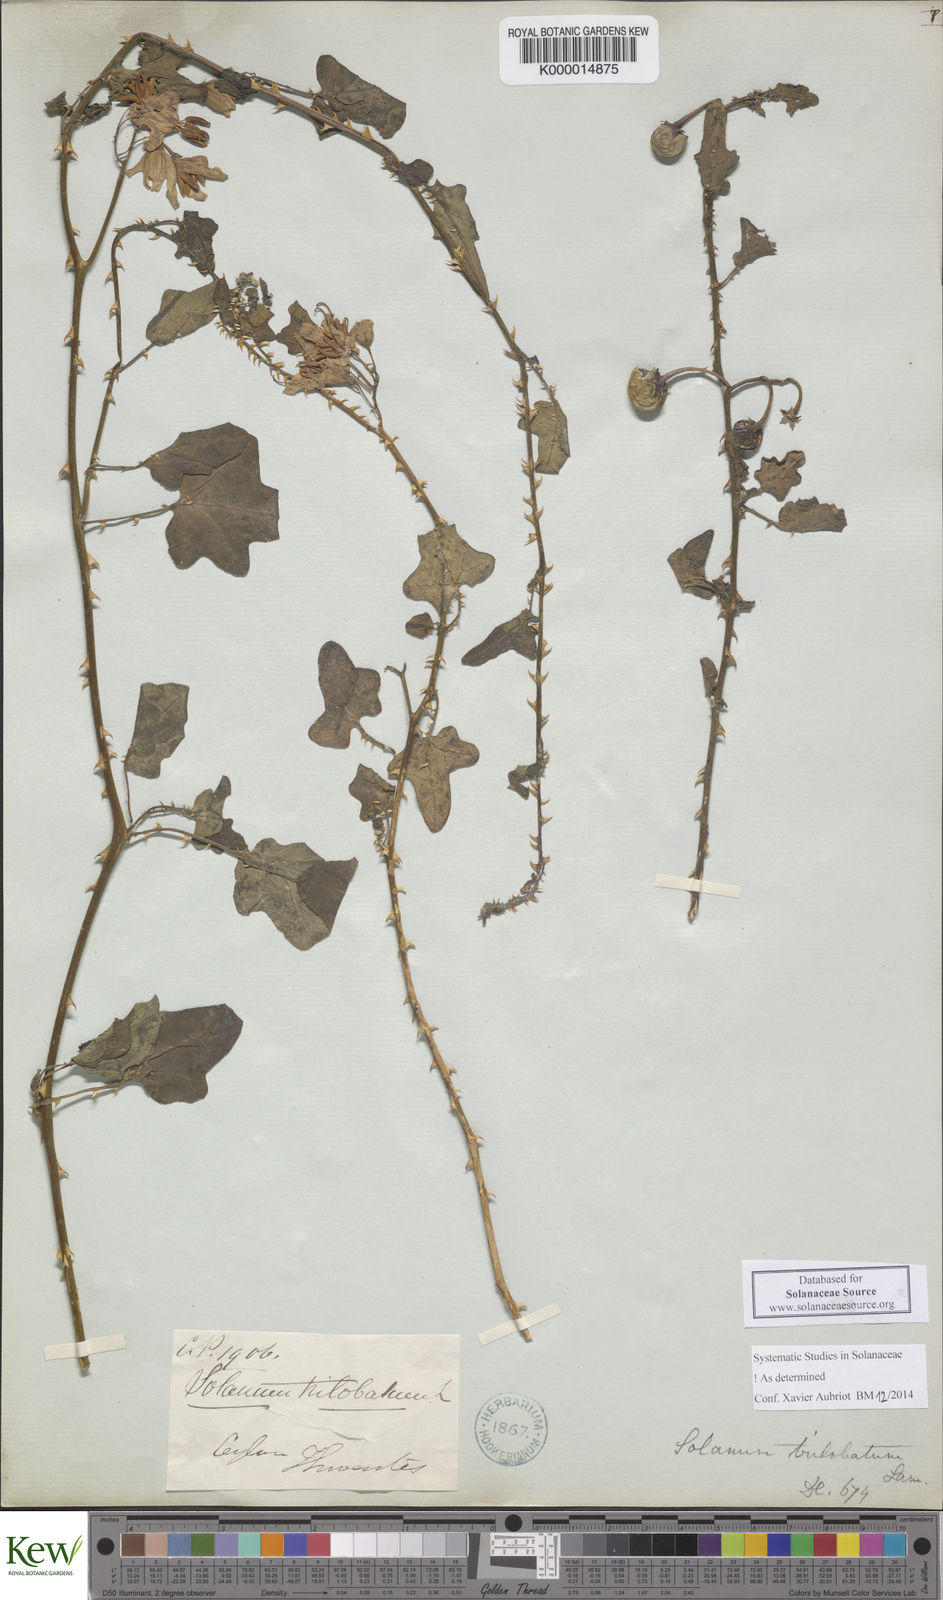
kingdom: Plantae
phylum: Tracheophyta
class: Magnoliopsida
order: Solanales
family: Solanaceae
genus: Solanum
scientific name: Solanum trilobatum
